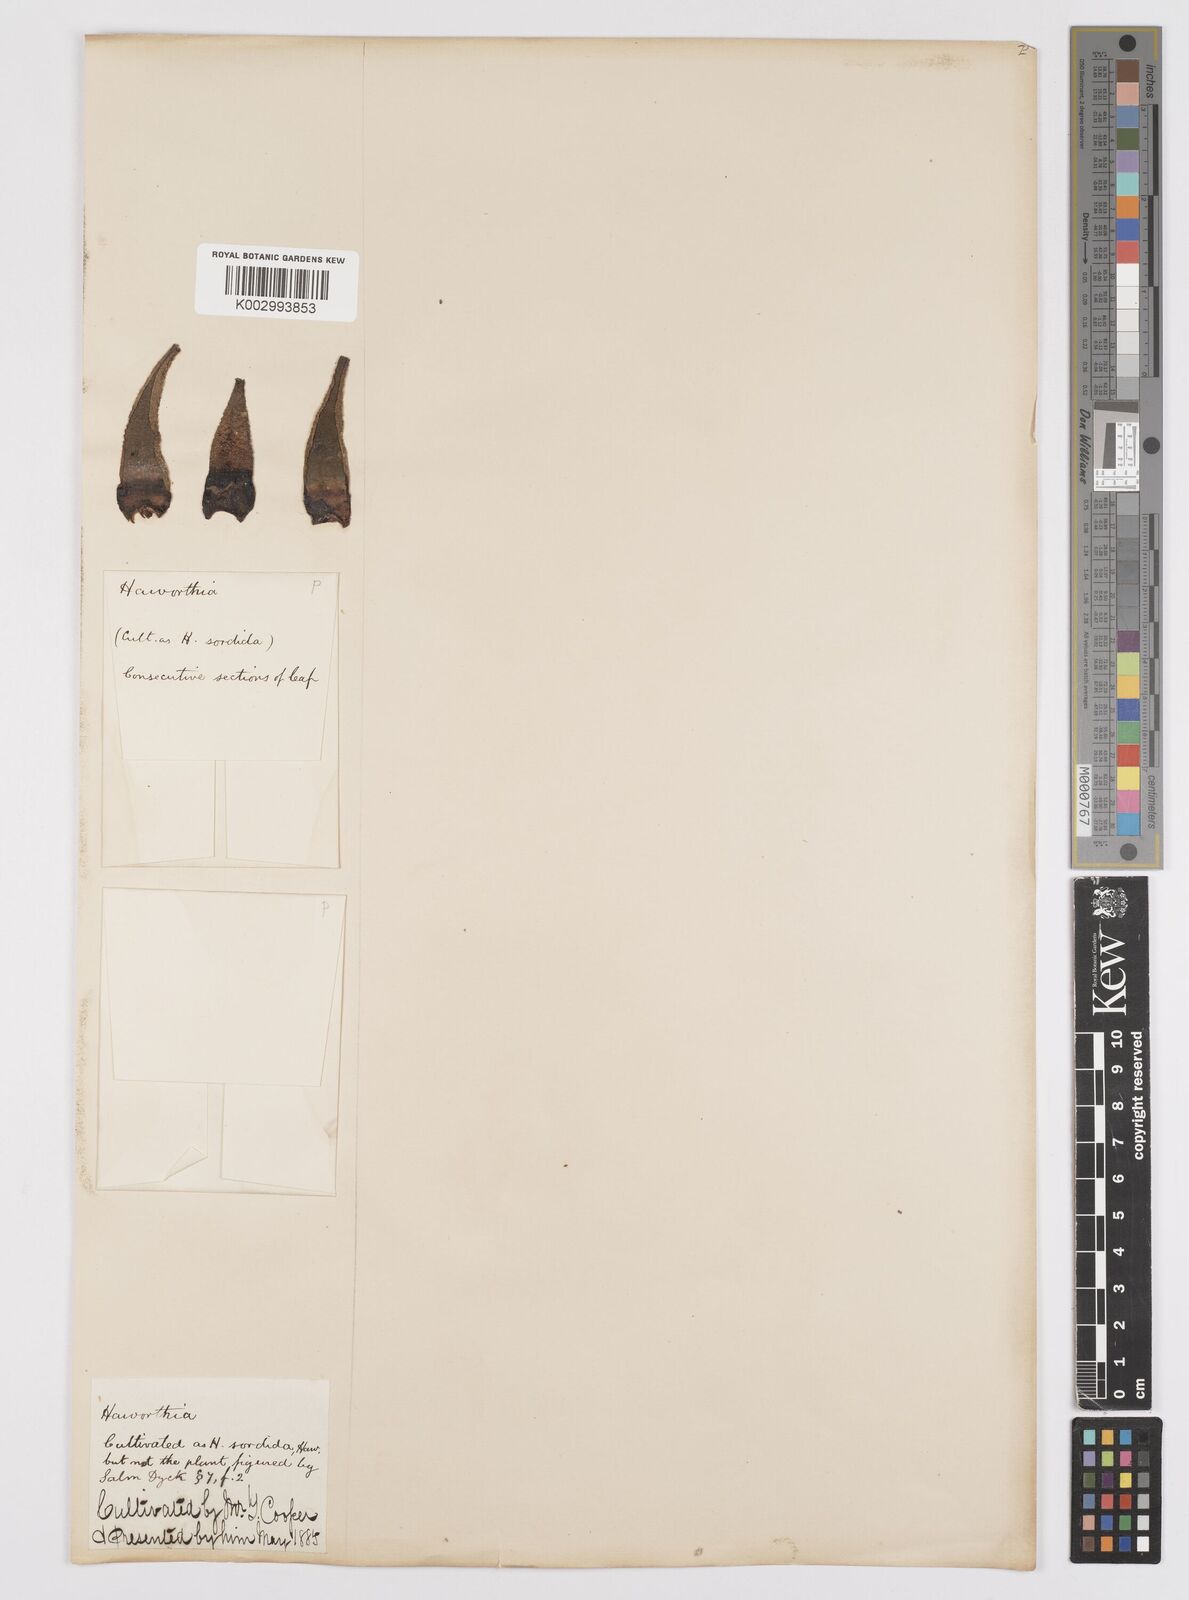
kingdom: Plantae
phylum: Tracheophyta
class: Liliopsida
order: Asparagales
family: Asphodelaceae
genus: Haworthia
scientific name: Haworthia arachnoidea
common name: Cobweb-aloe
